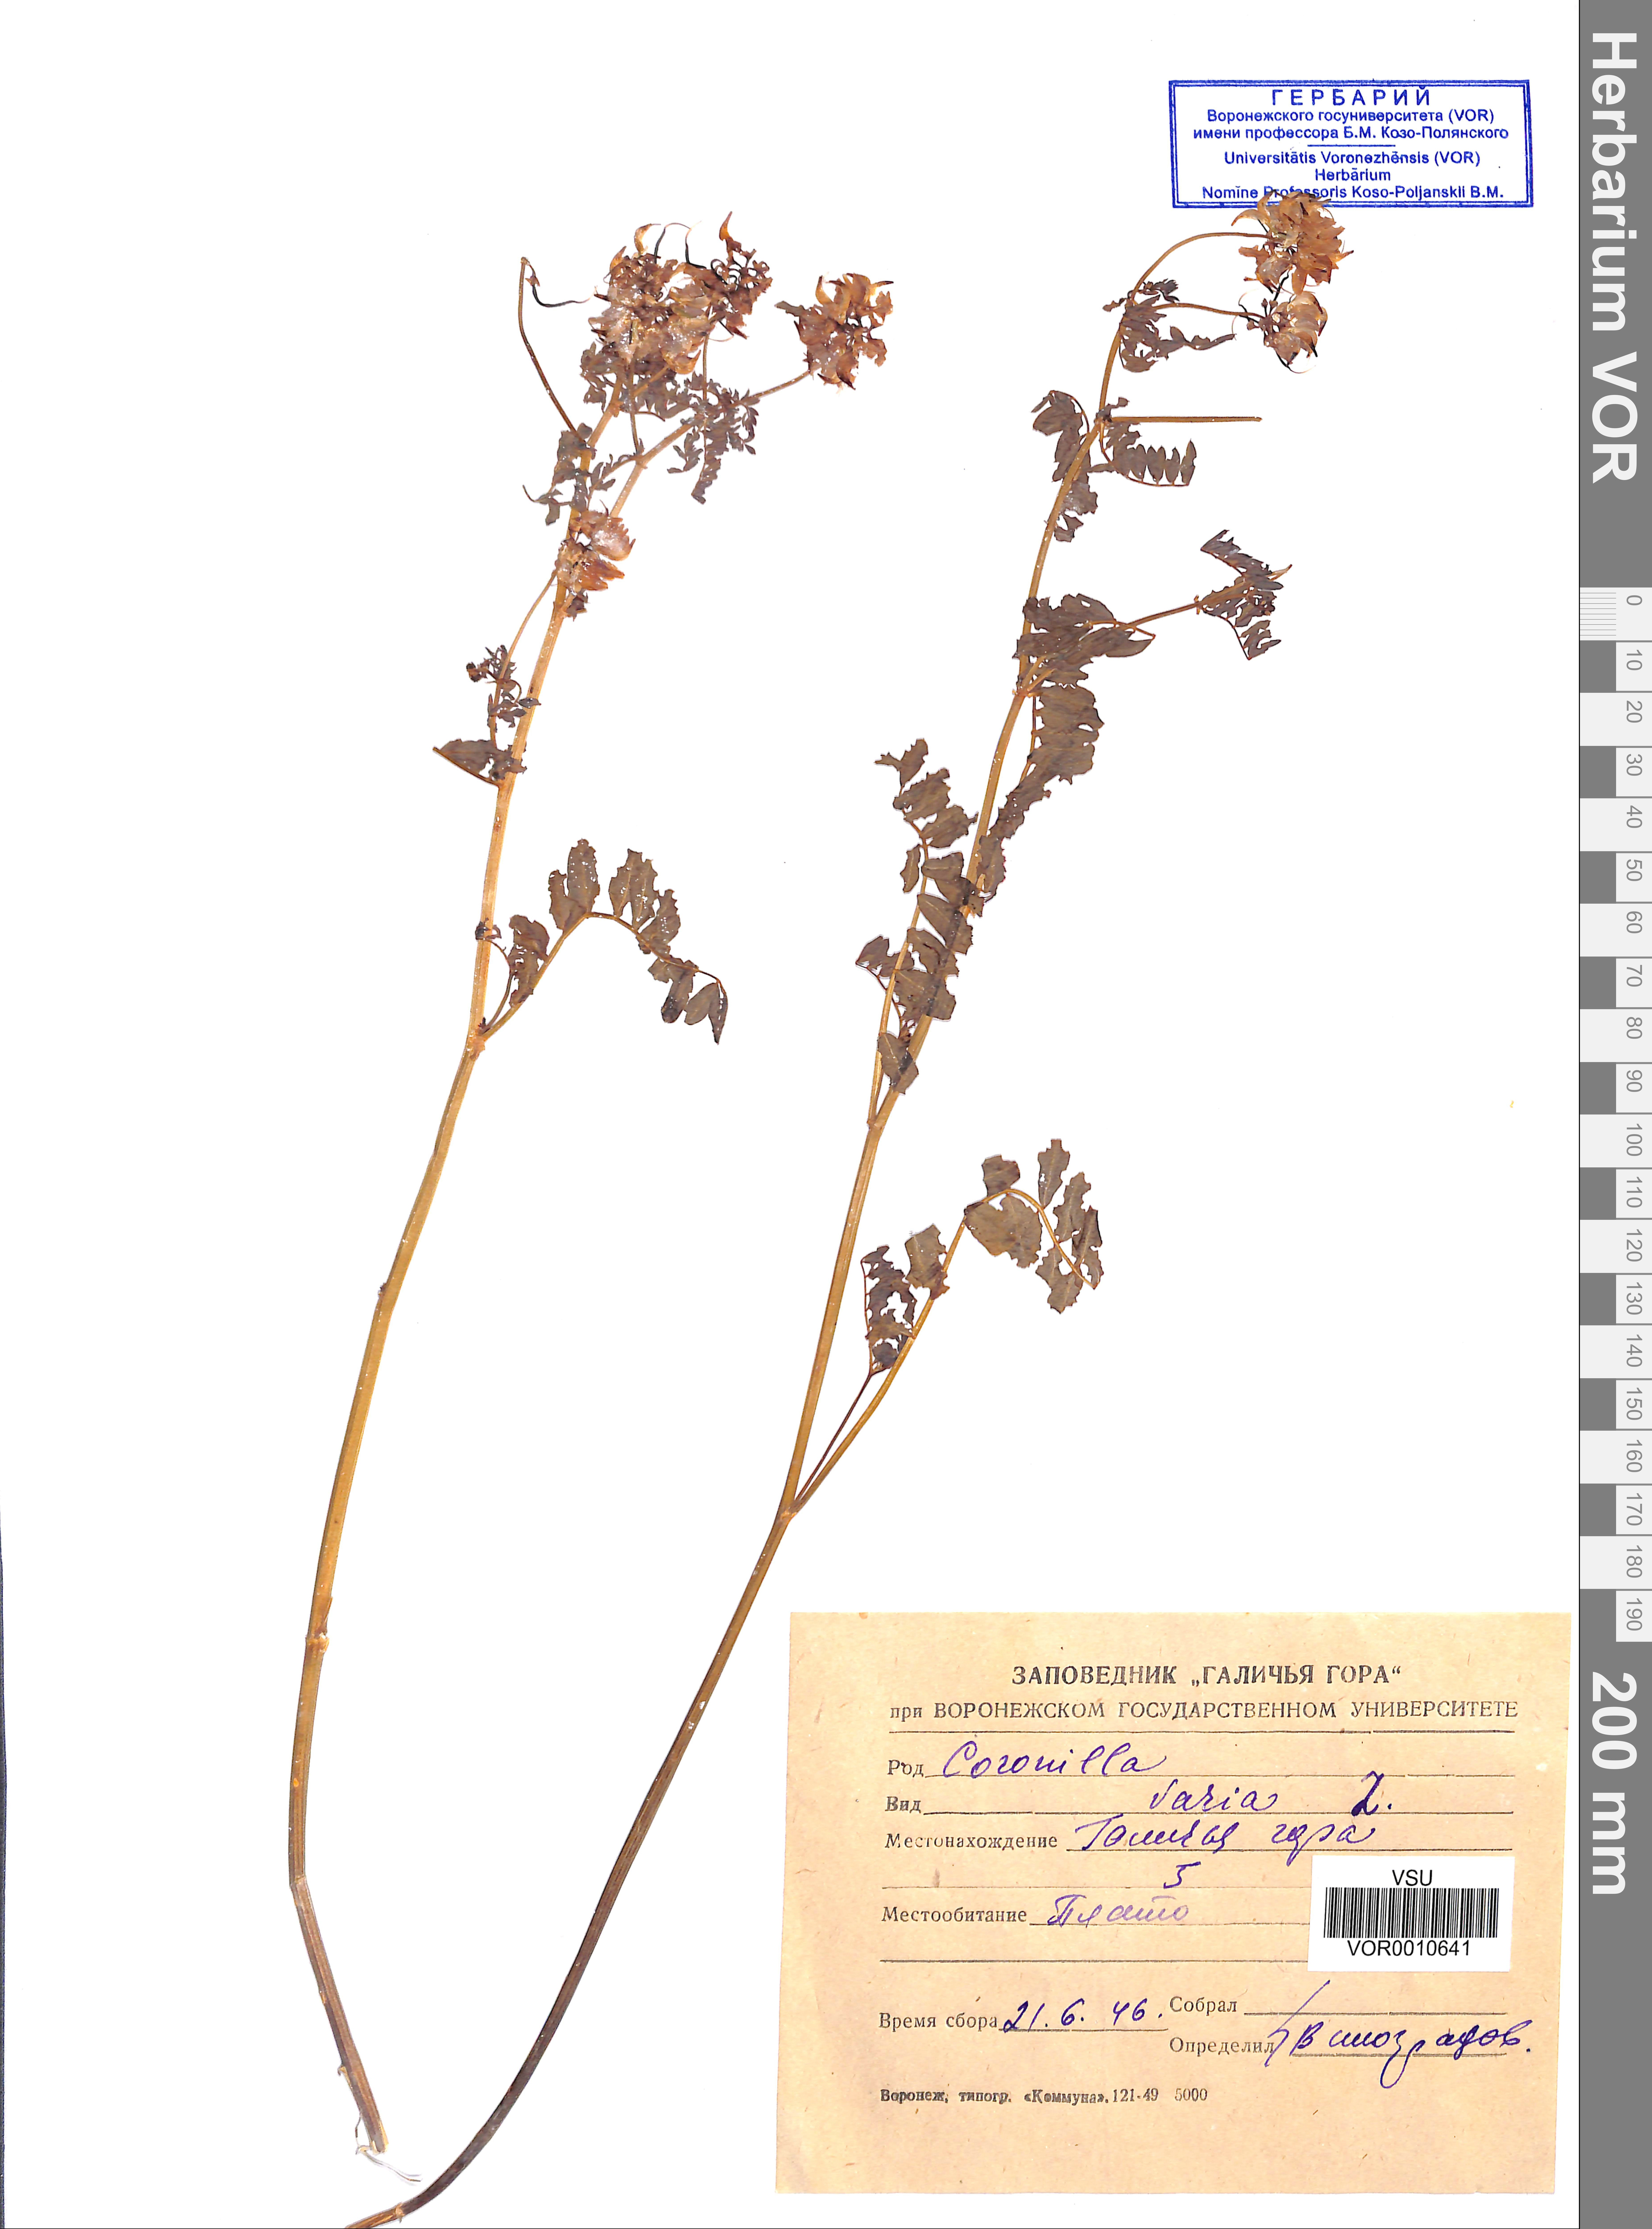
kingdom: Plantae
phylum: Tracheophyta
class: Magnoliopsida
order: Fabales
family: Fabaceae
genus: Coronilla
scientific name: Coronilla varia
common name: Crownvetch
